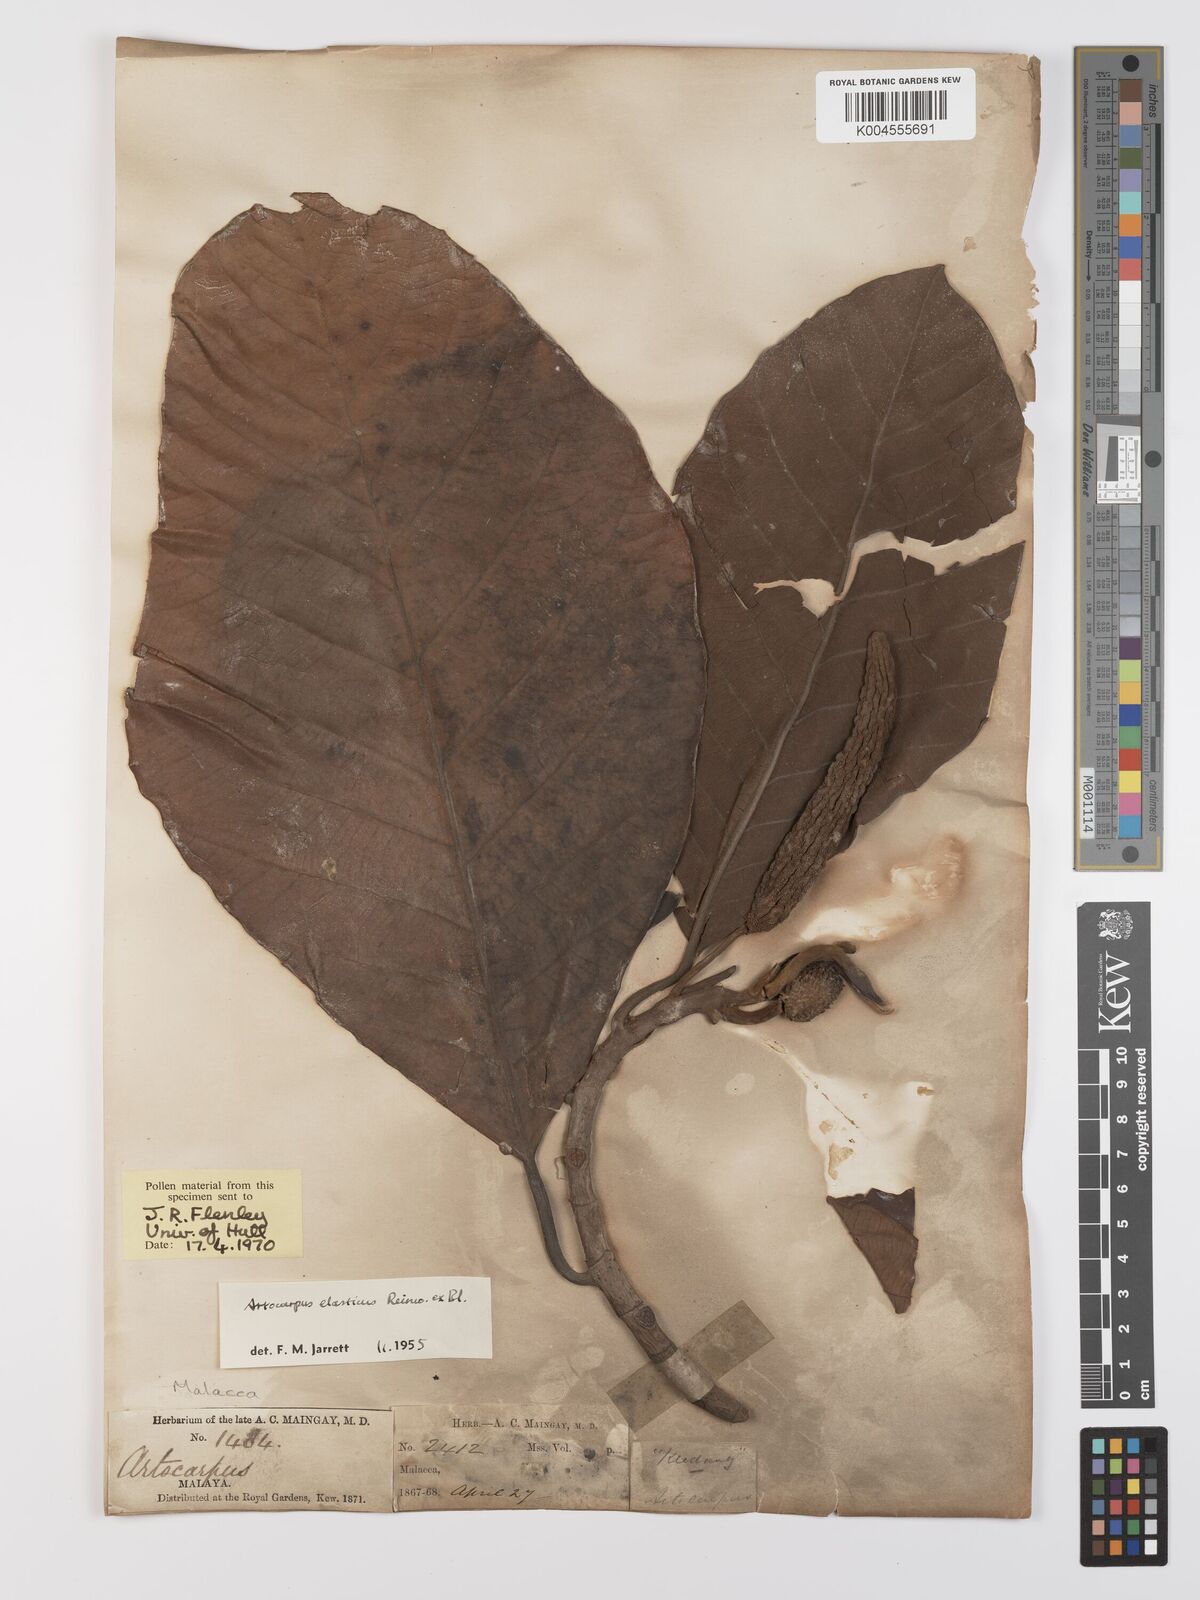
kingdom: Plantae
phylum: Tracheophyta
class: Magnoliopsida
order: Rosales
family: Moraceae
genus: Artocarpus
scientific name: Artocarpus elasticus
